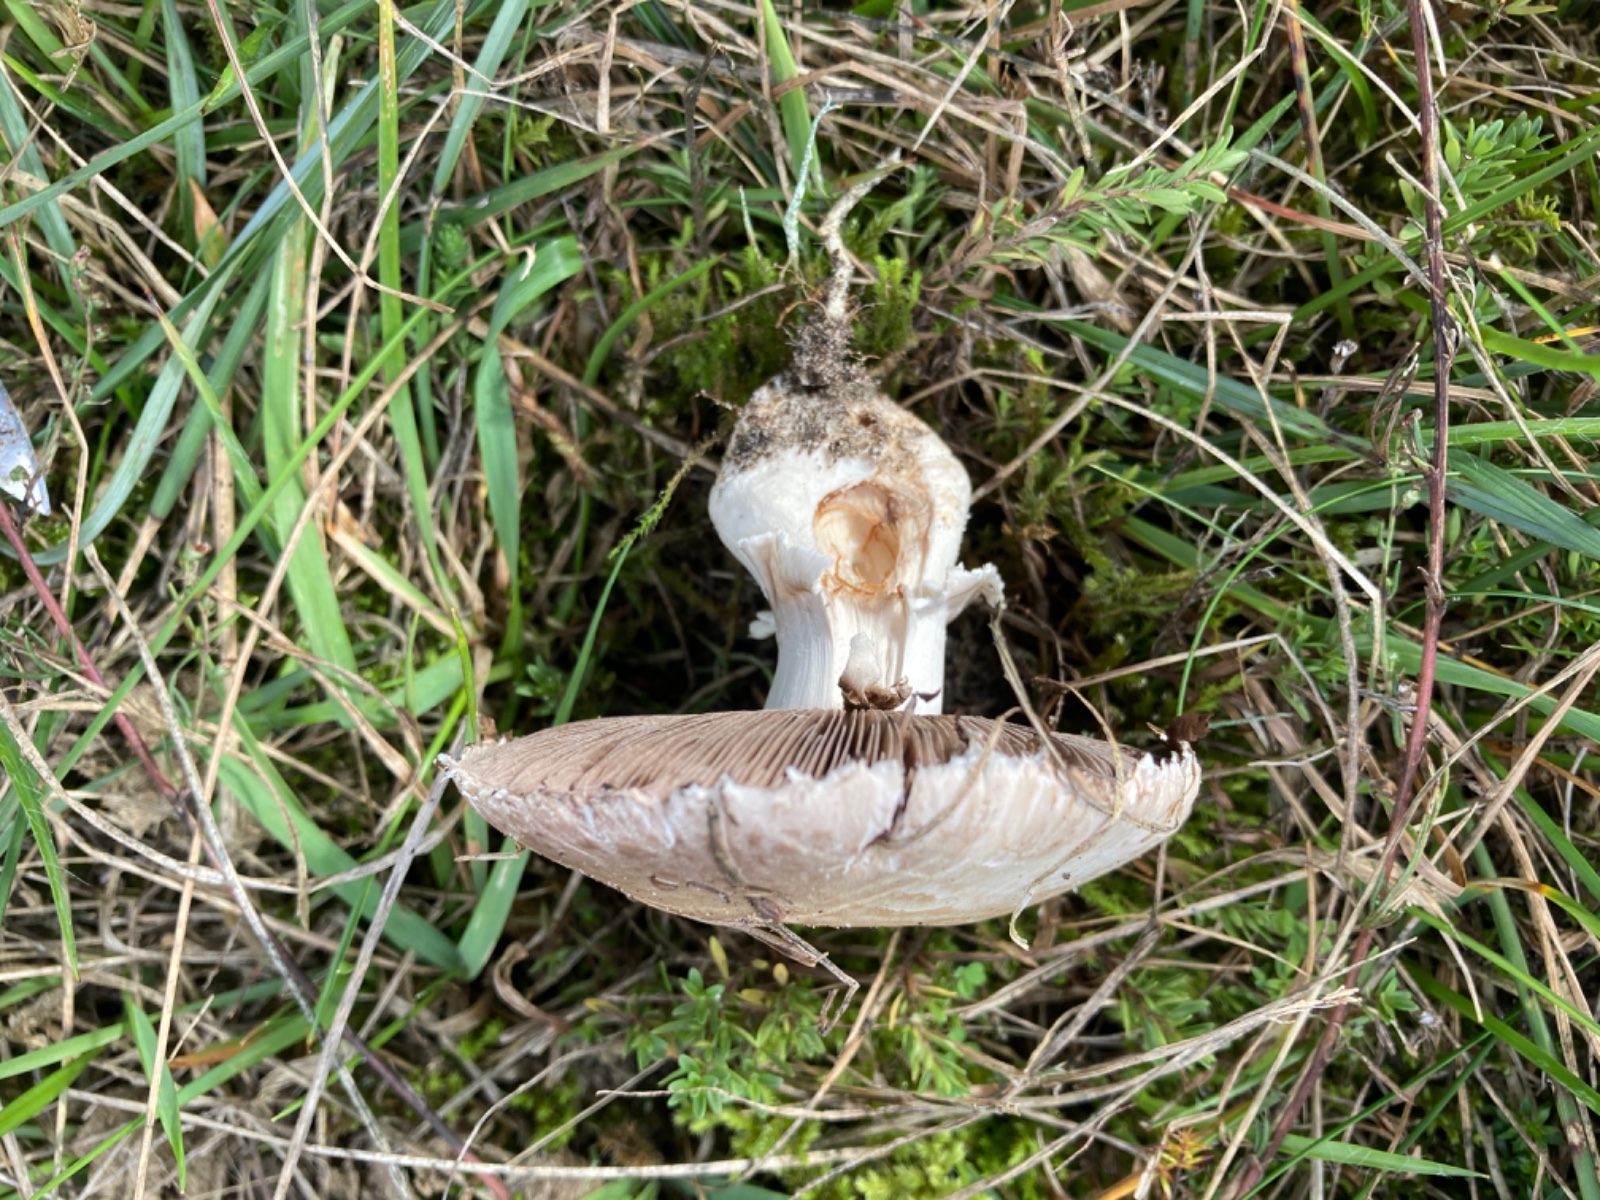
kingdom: Fungi
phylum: Basidiomycota
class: Agaricomycetes
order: Agaricales
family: Agaricaceae
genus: Agaricus
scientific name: Agaricus litoralis
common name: kyst-champignon
